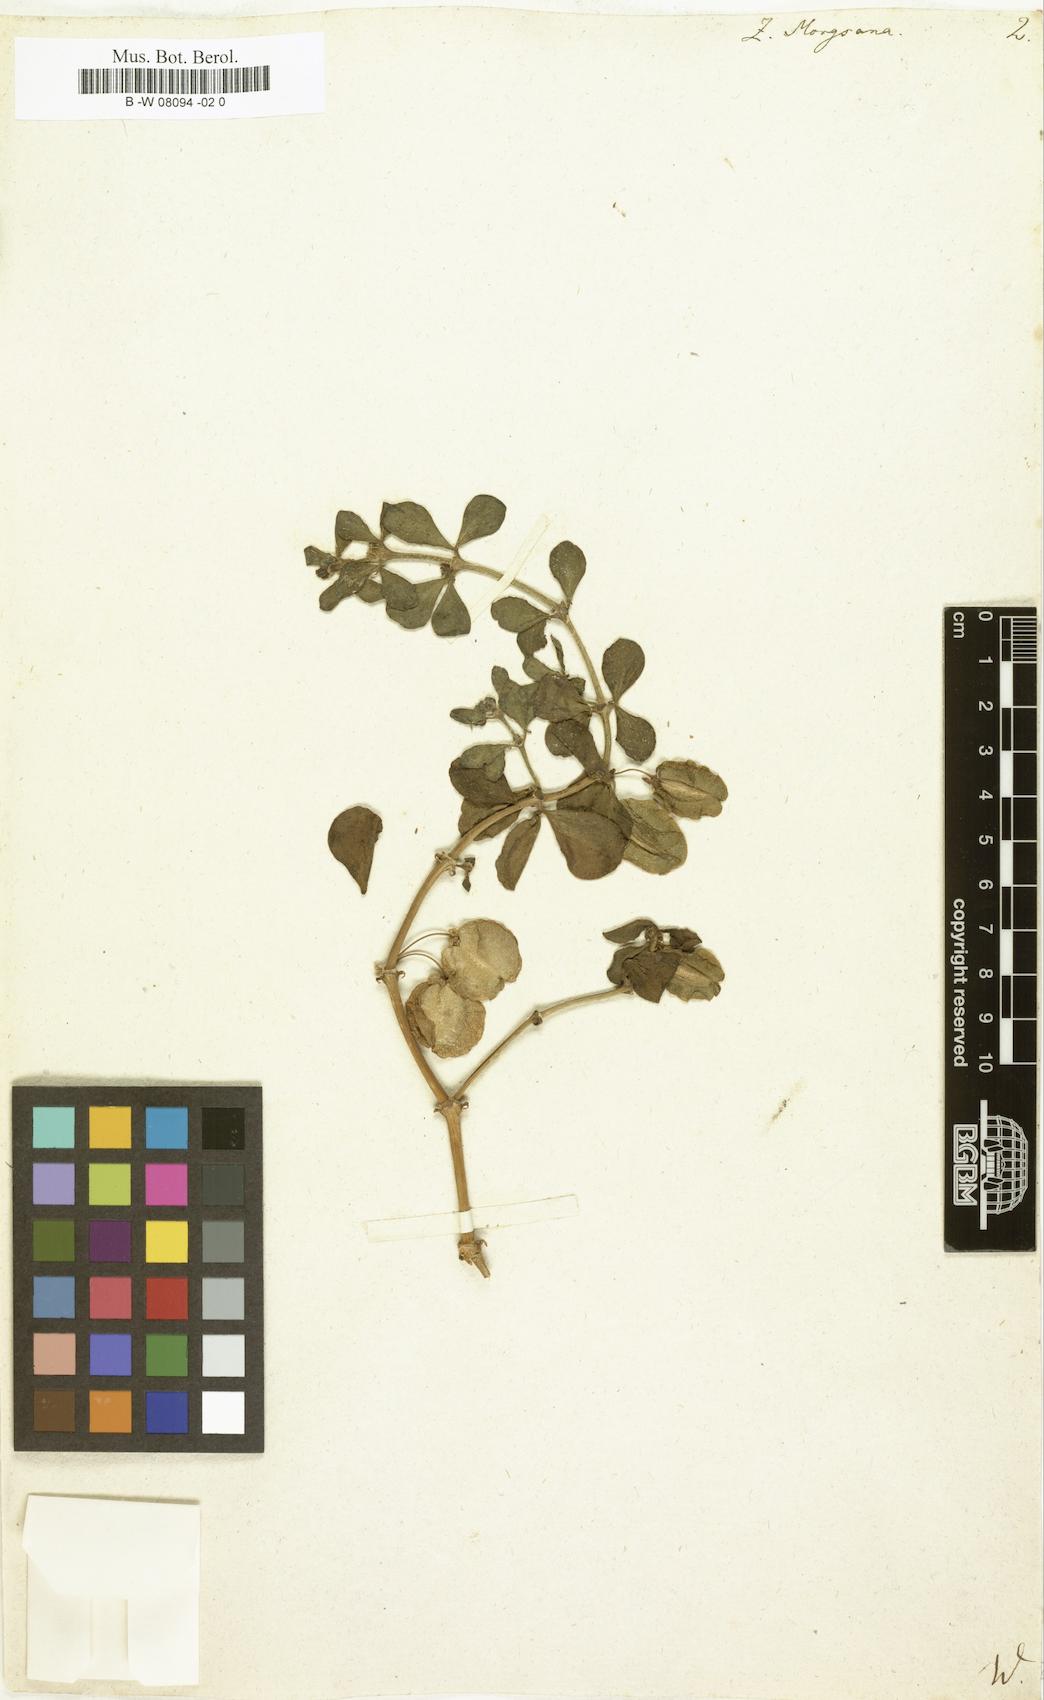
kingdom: Plantae
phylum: Tracheophyta
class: Magnoliopsida
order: Zygophyllales
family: Zygophyllaceae
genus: Roepera
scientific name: Roepera morgsana
